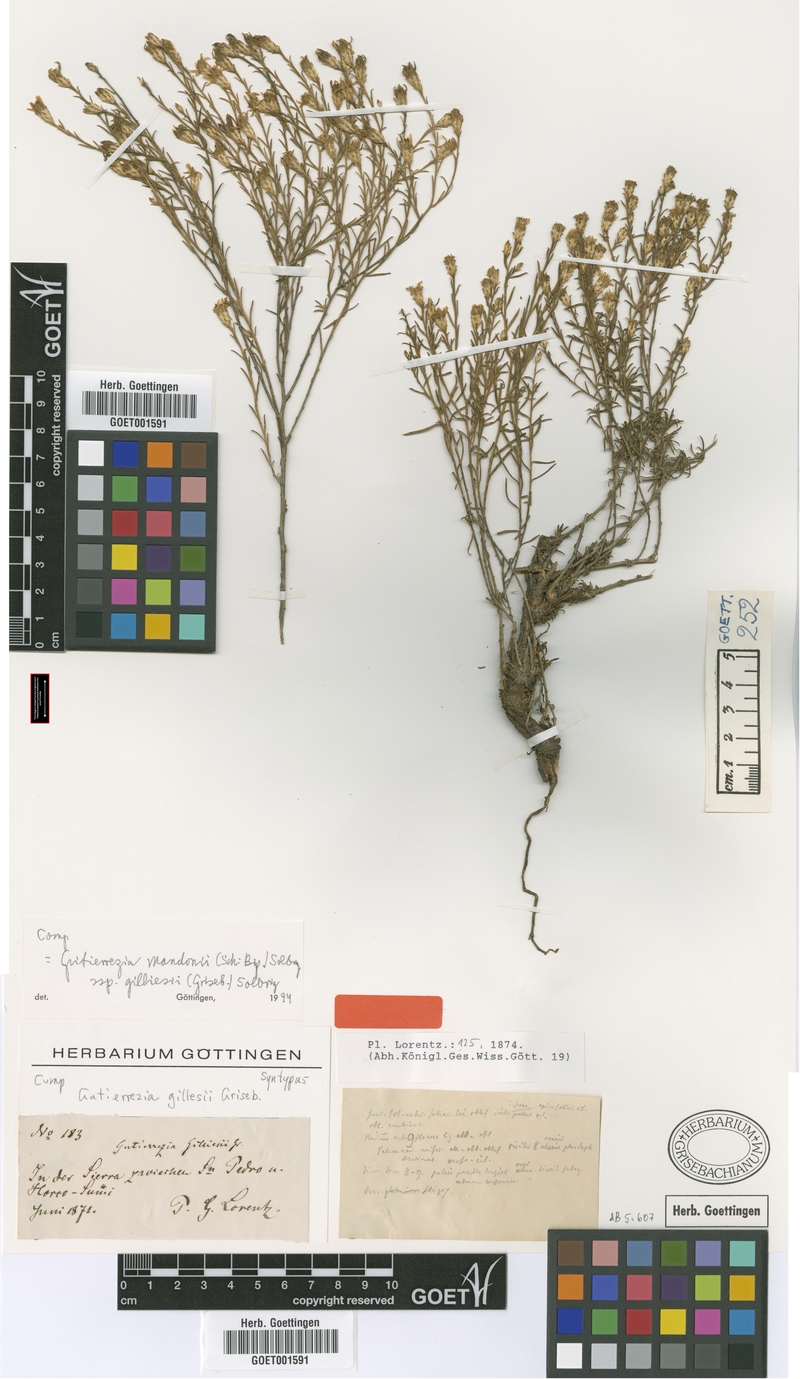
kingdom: Plantae
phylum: Tracheophyta
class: Magnoliopsida
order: Asterales
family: Asteraceae
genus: Gutierrezia
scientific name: Gutierrezia gilliesii
